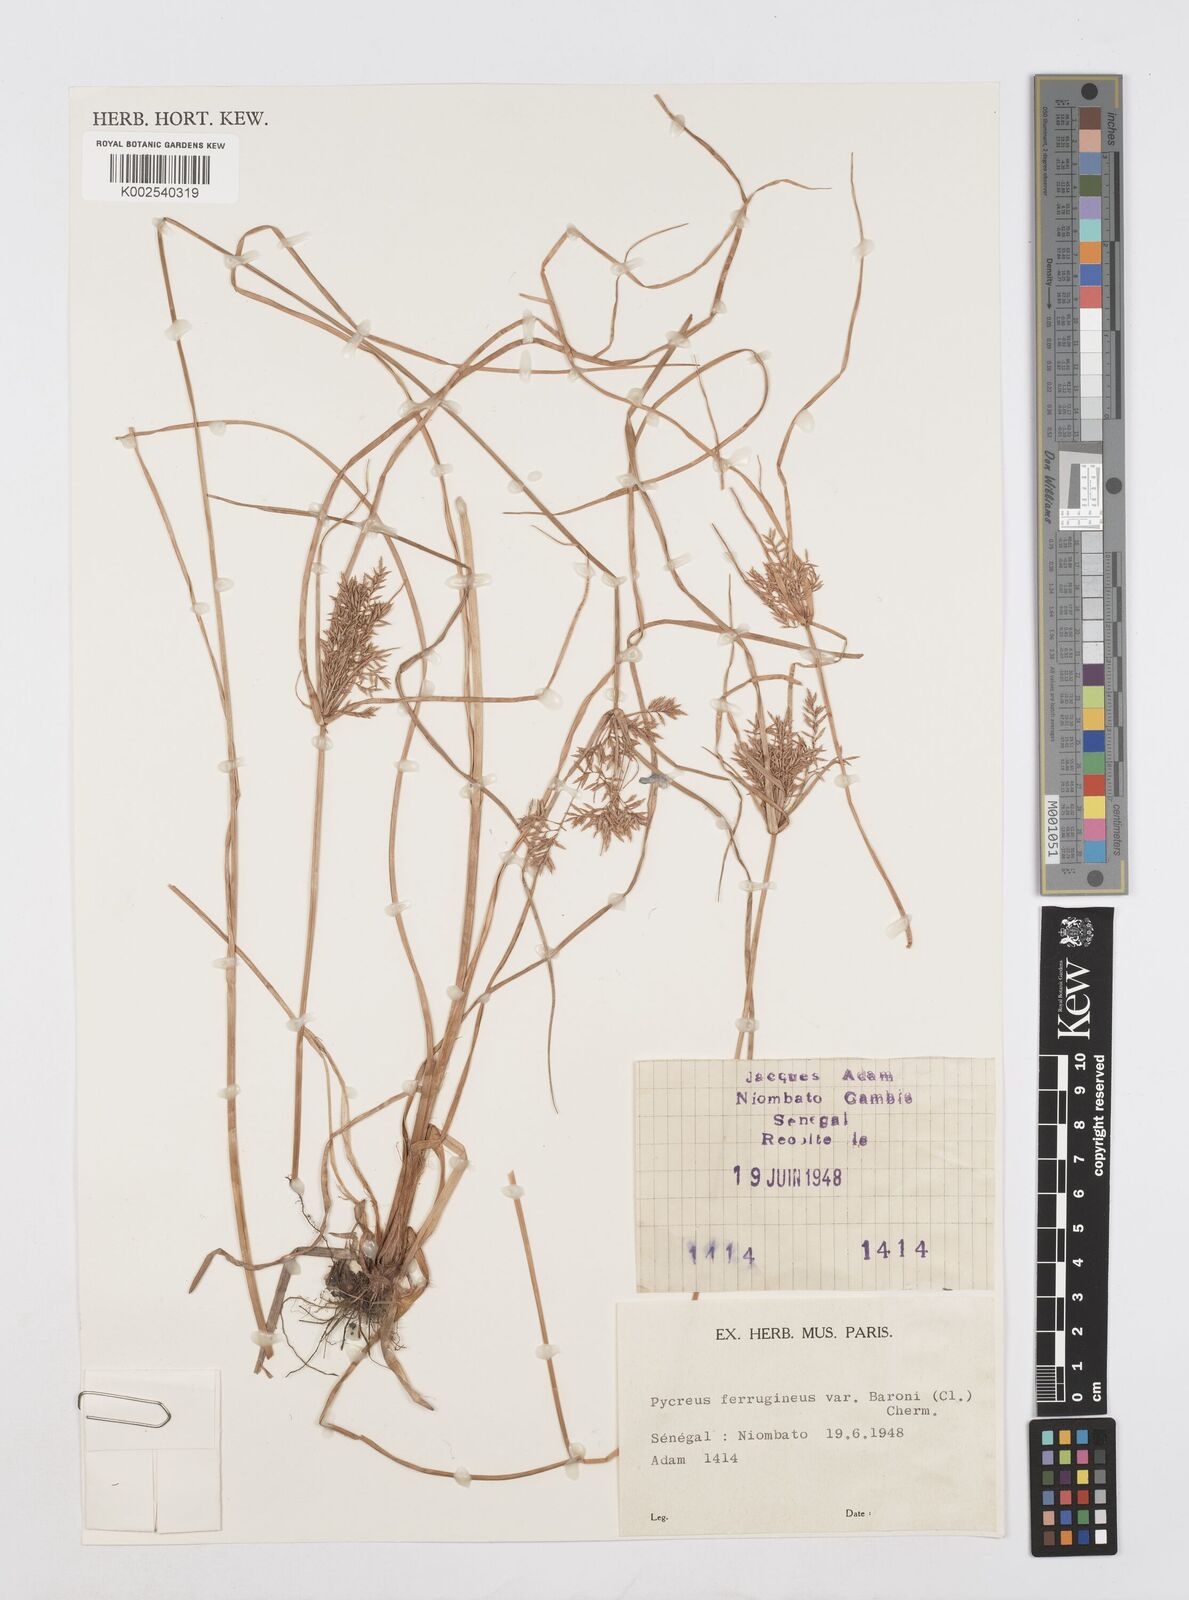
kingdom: Plantae
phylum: Tracheophyta
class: Liliopsida
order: Poales
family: Cyperaceae
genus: Cyperus
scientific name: Cyperus polystachyos
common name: Bunchy flat sedge
